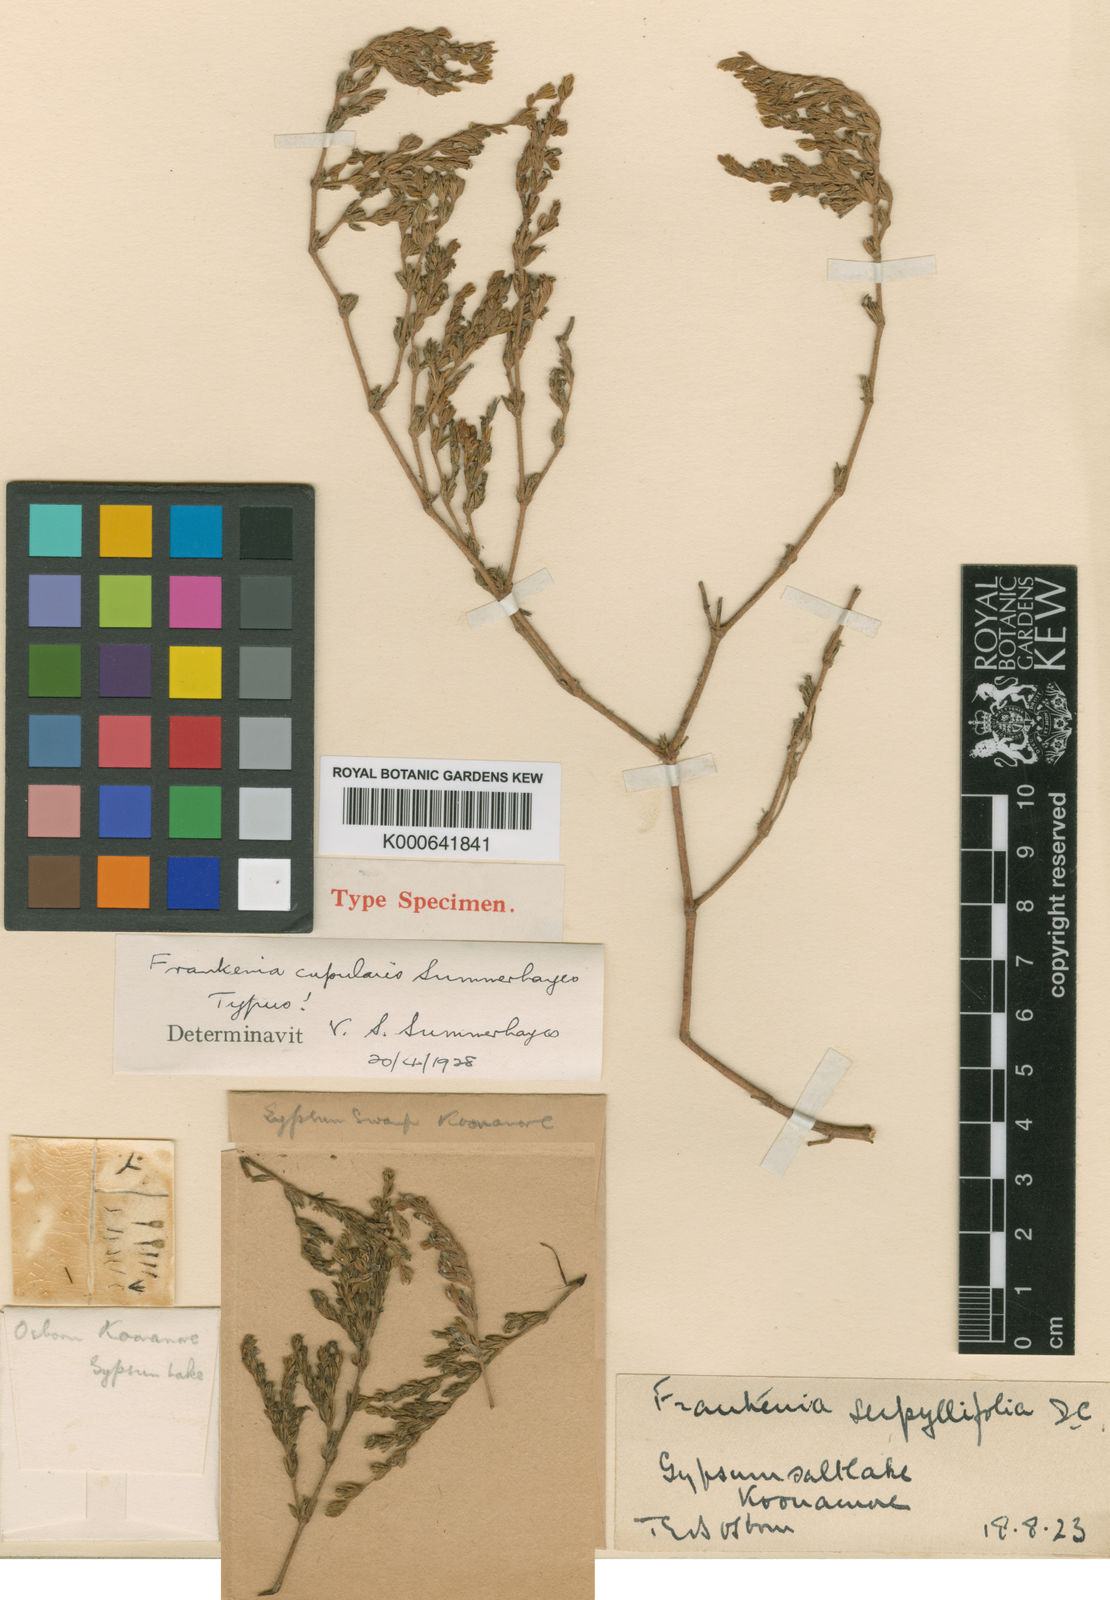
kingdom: Plantae
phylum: Tracheophyta
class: Magnoliopsida
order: Caryophyllales
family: Frankeniaceae
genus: Frankenia
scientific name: Frankenia cupularis
